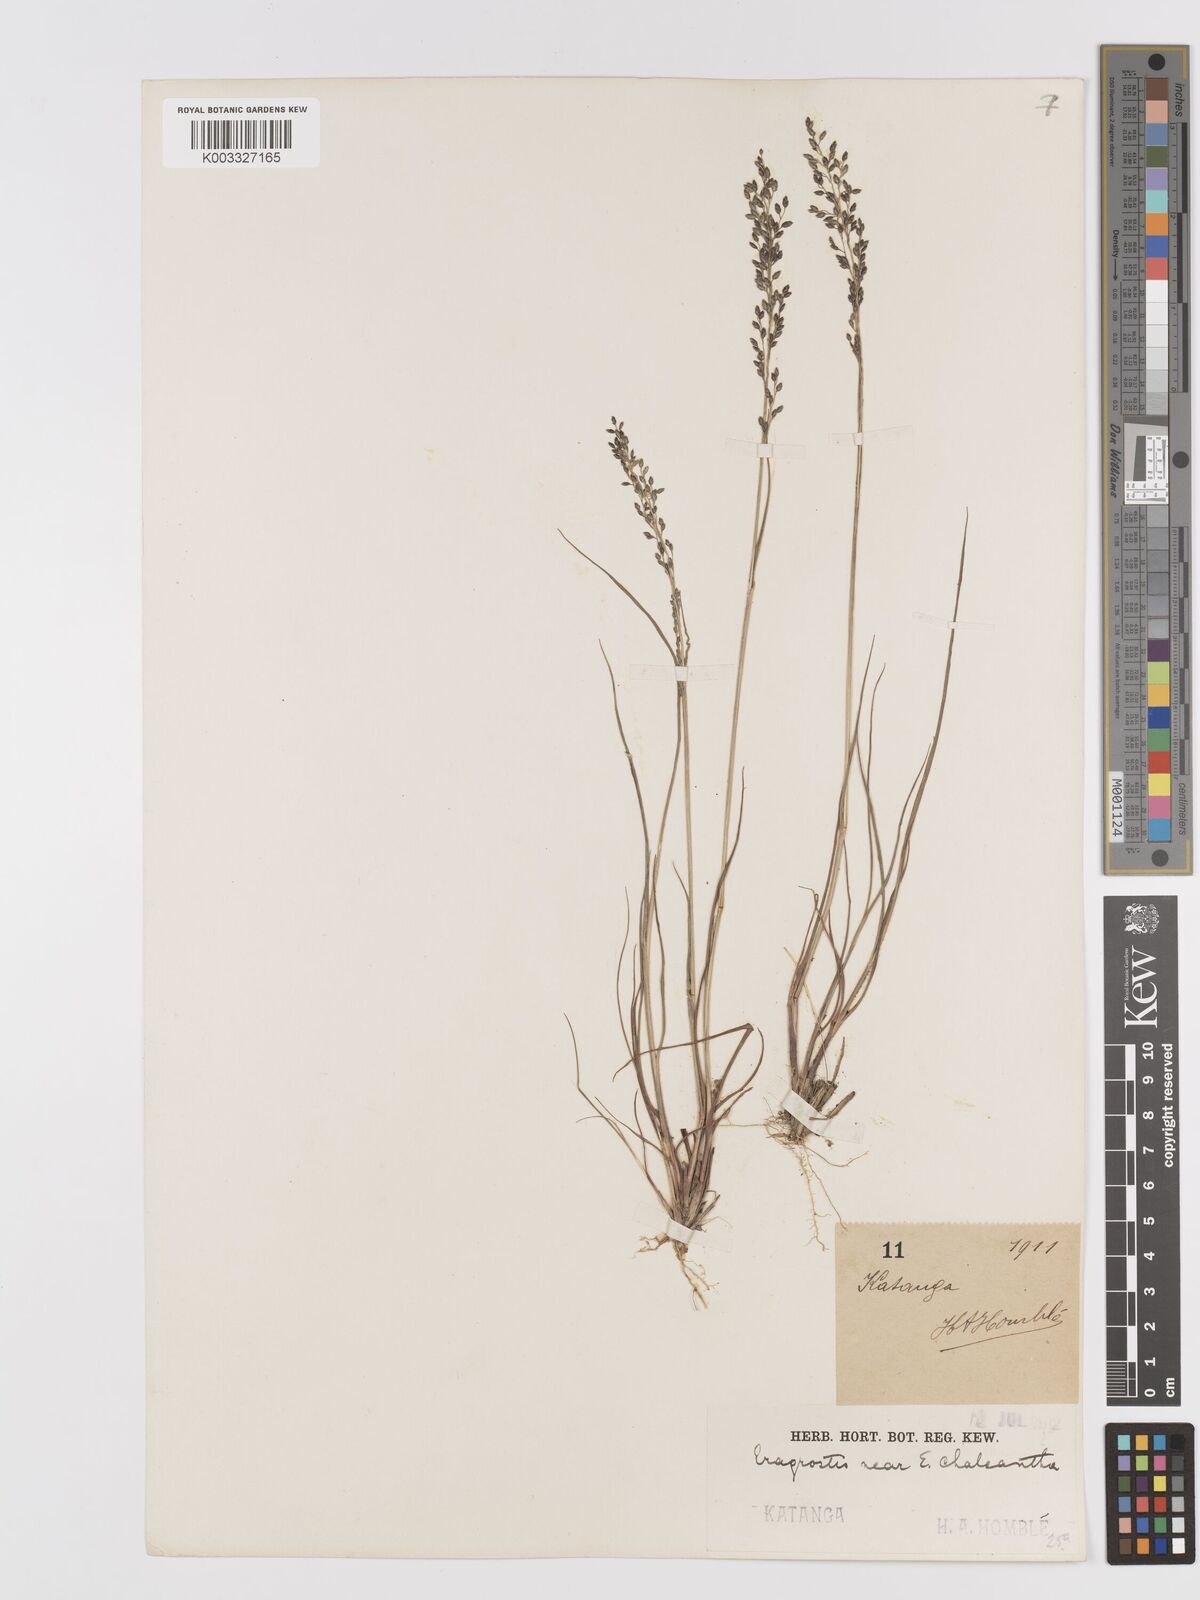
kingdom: Plantae
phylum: Tracheophyta
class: Liliopsida
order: Poales
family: Poaceae
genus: Eragrostis
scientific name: Eragrostis racemosa
